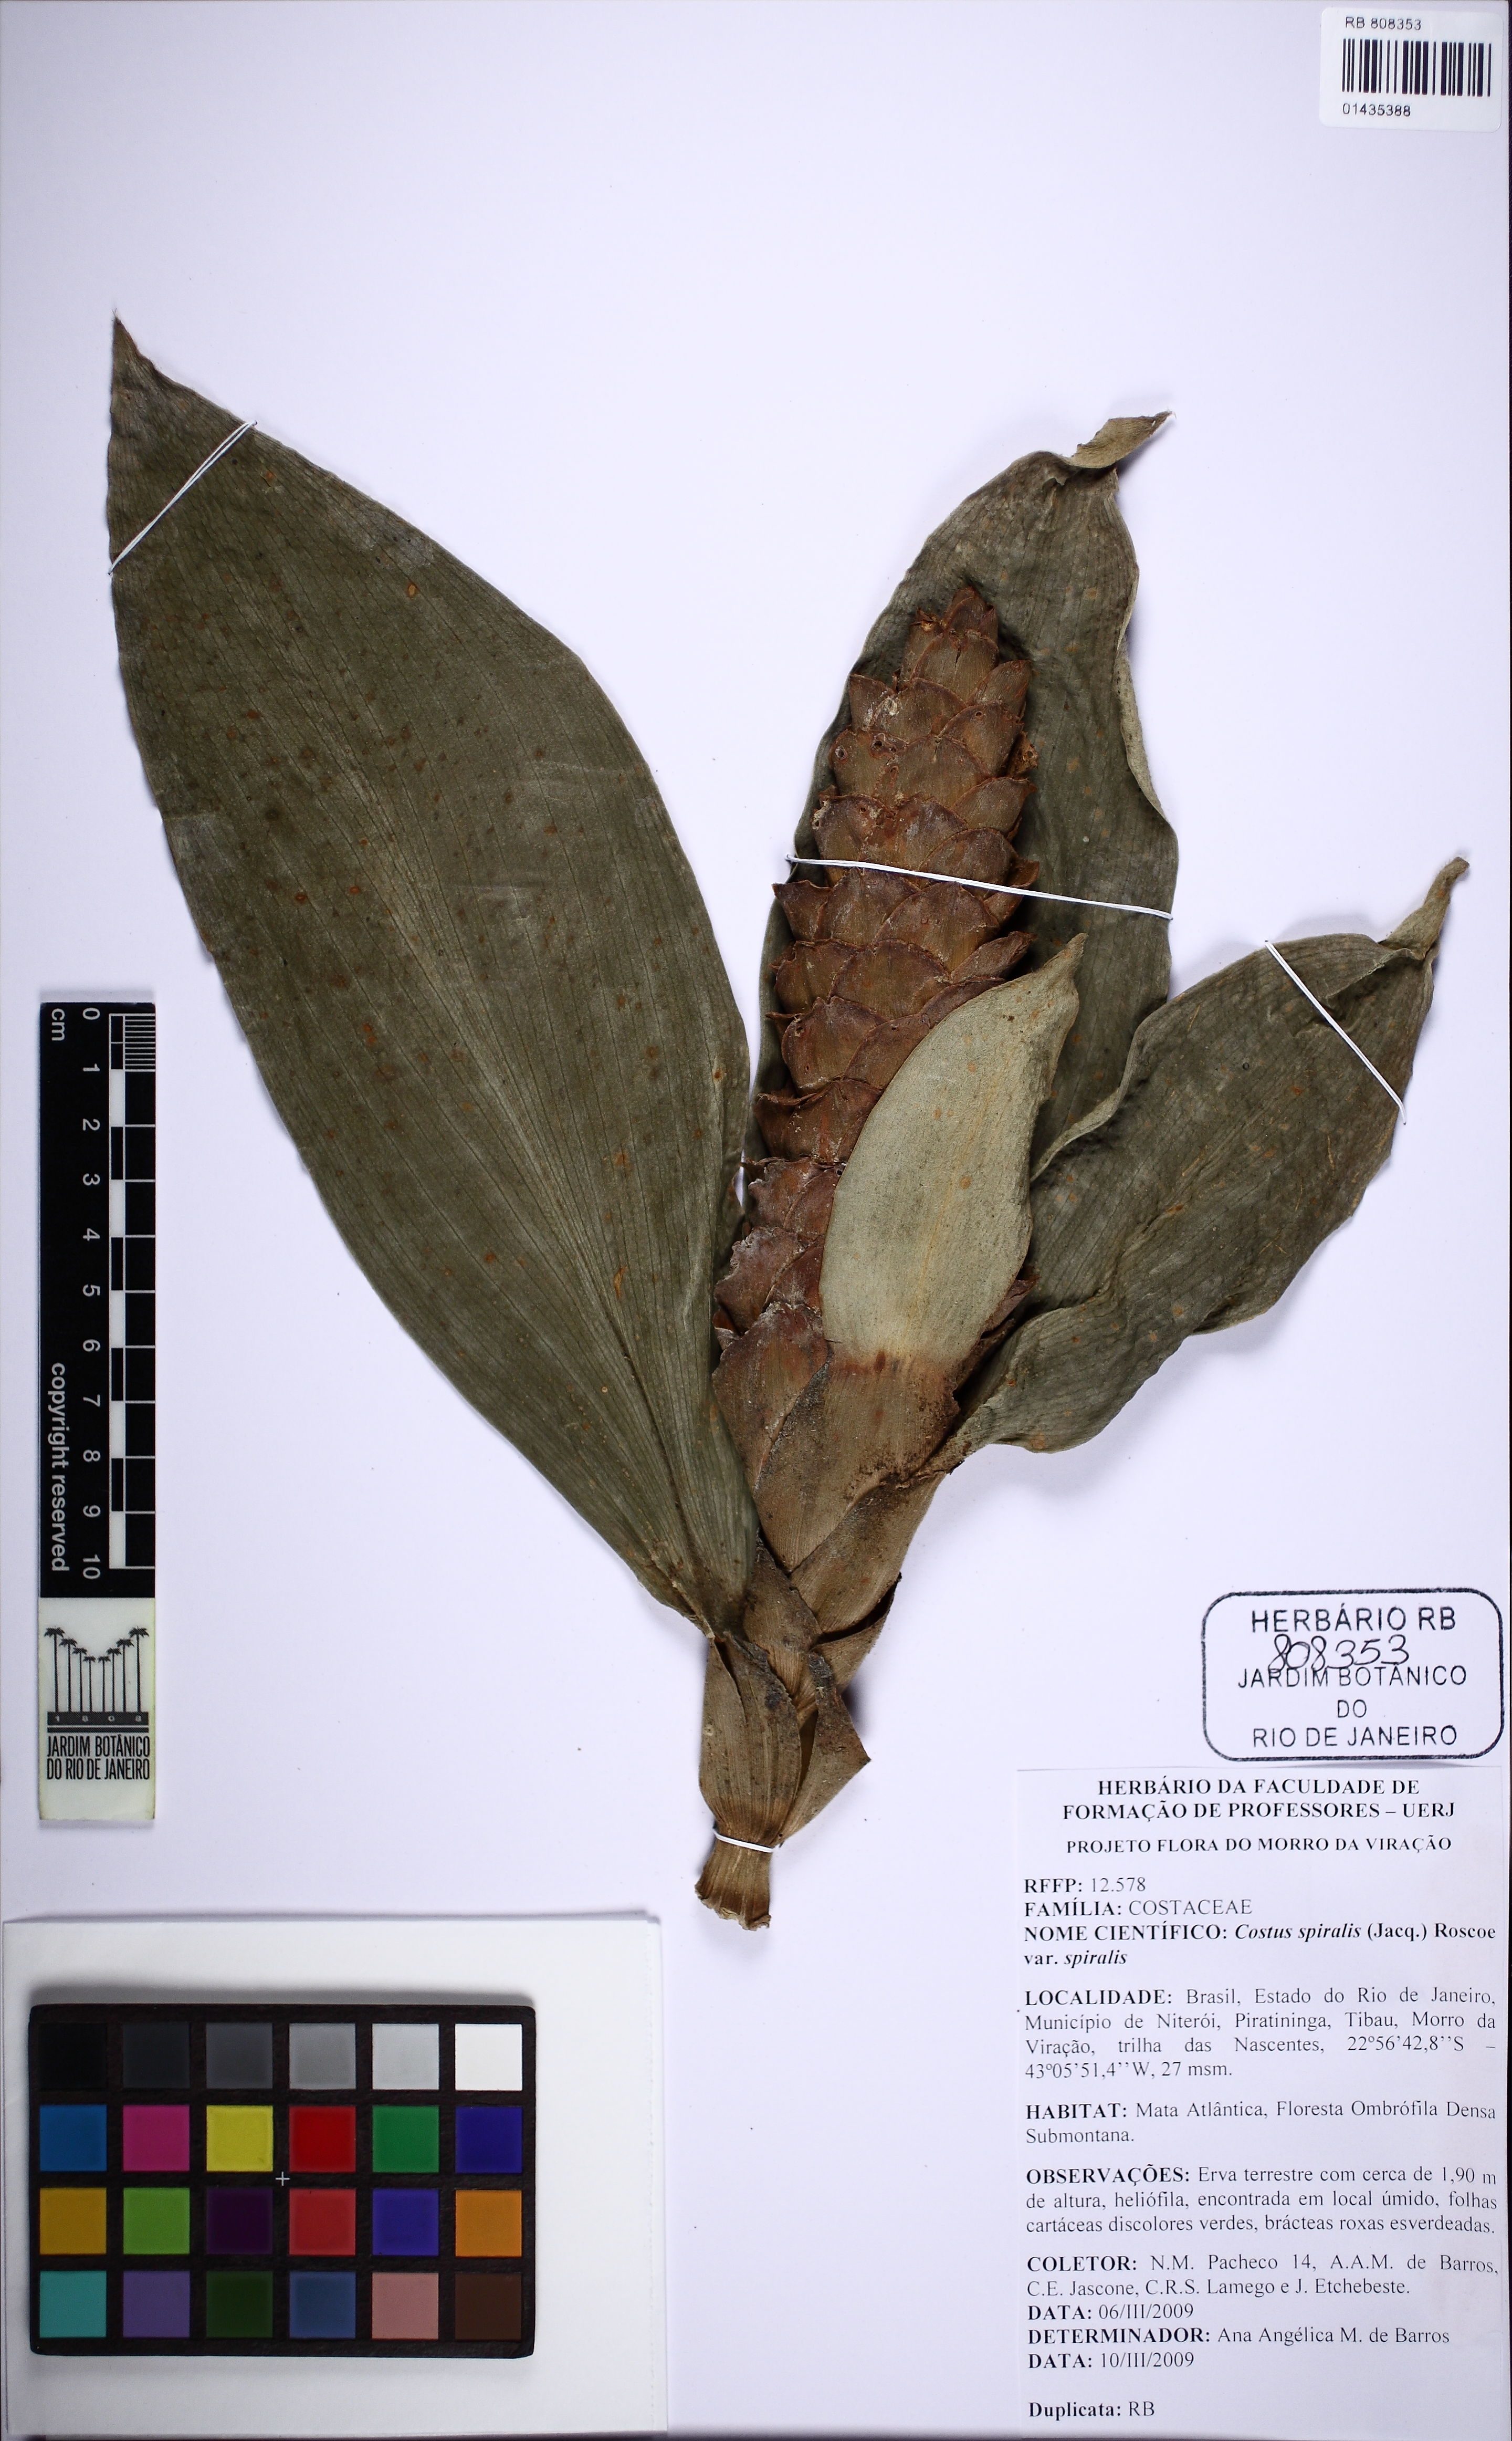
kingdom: Plantae
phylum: Tracheophyta
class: Liliopsida
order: Zingiberales
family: Costaceae
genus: Costus
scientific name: Costus spiralis
